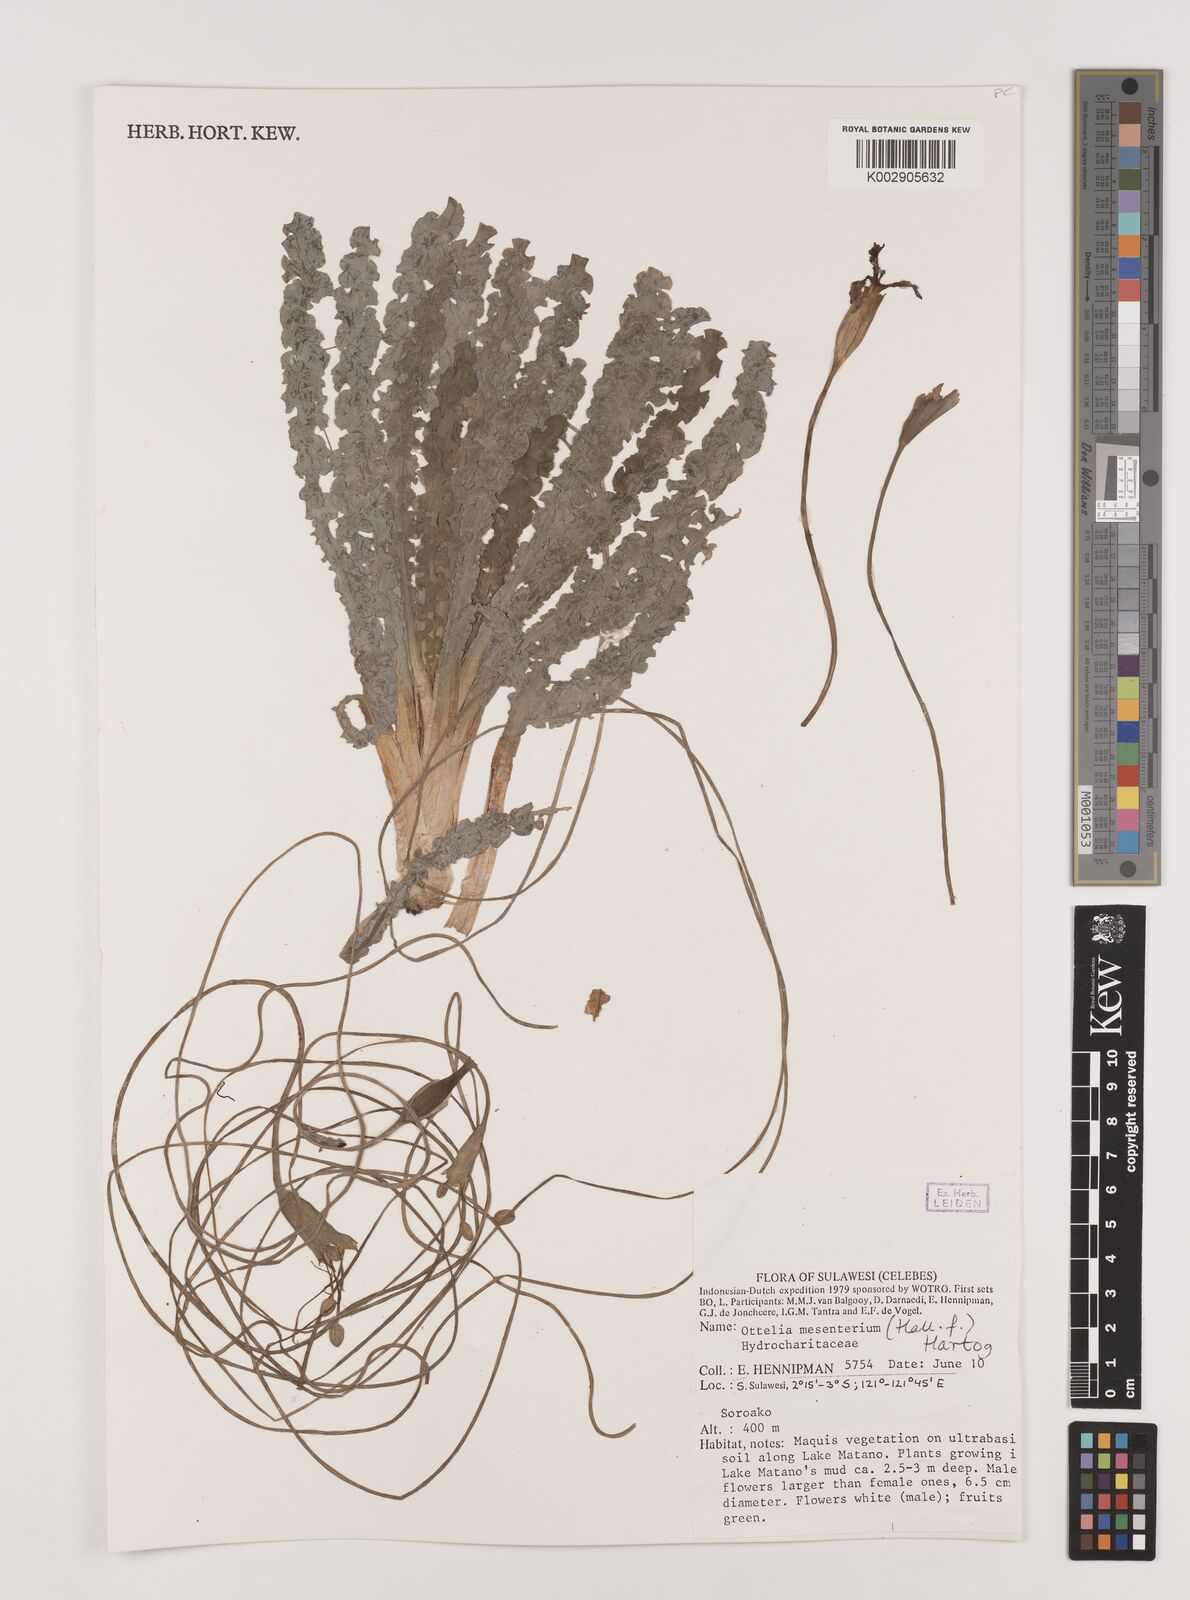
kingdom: Plantae
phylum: Tracheophyta
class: Liliopsida
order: Alismatales
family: Hydrocharitaceae
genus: Ottelia
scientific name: Ottelia mesenterium
